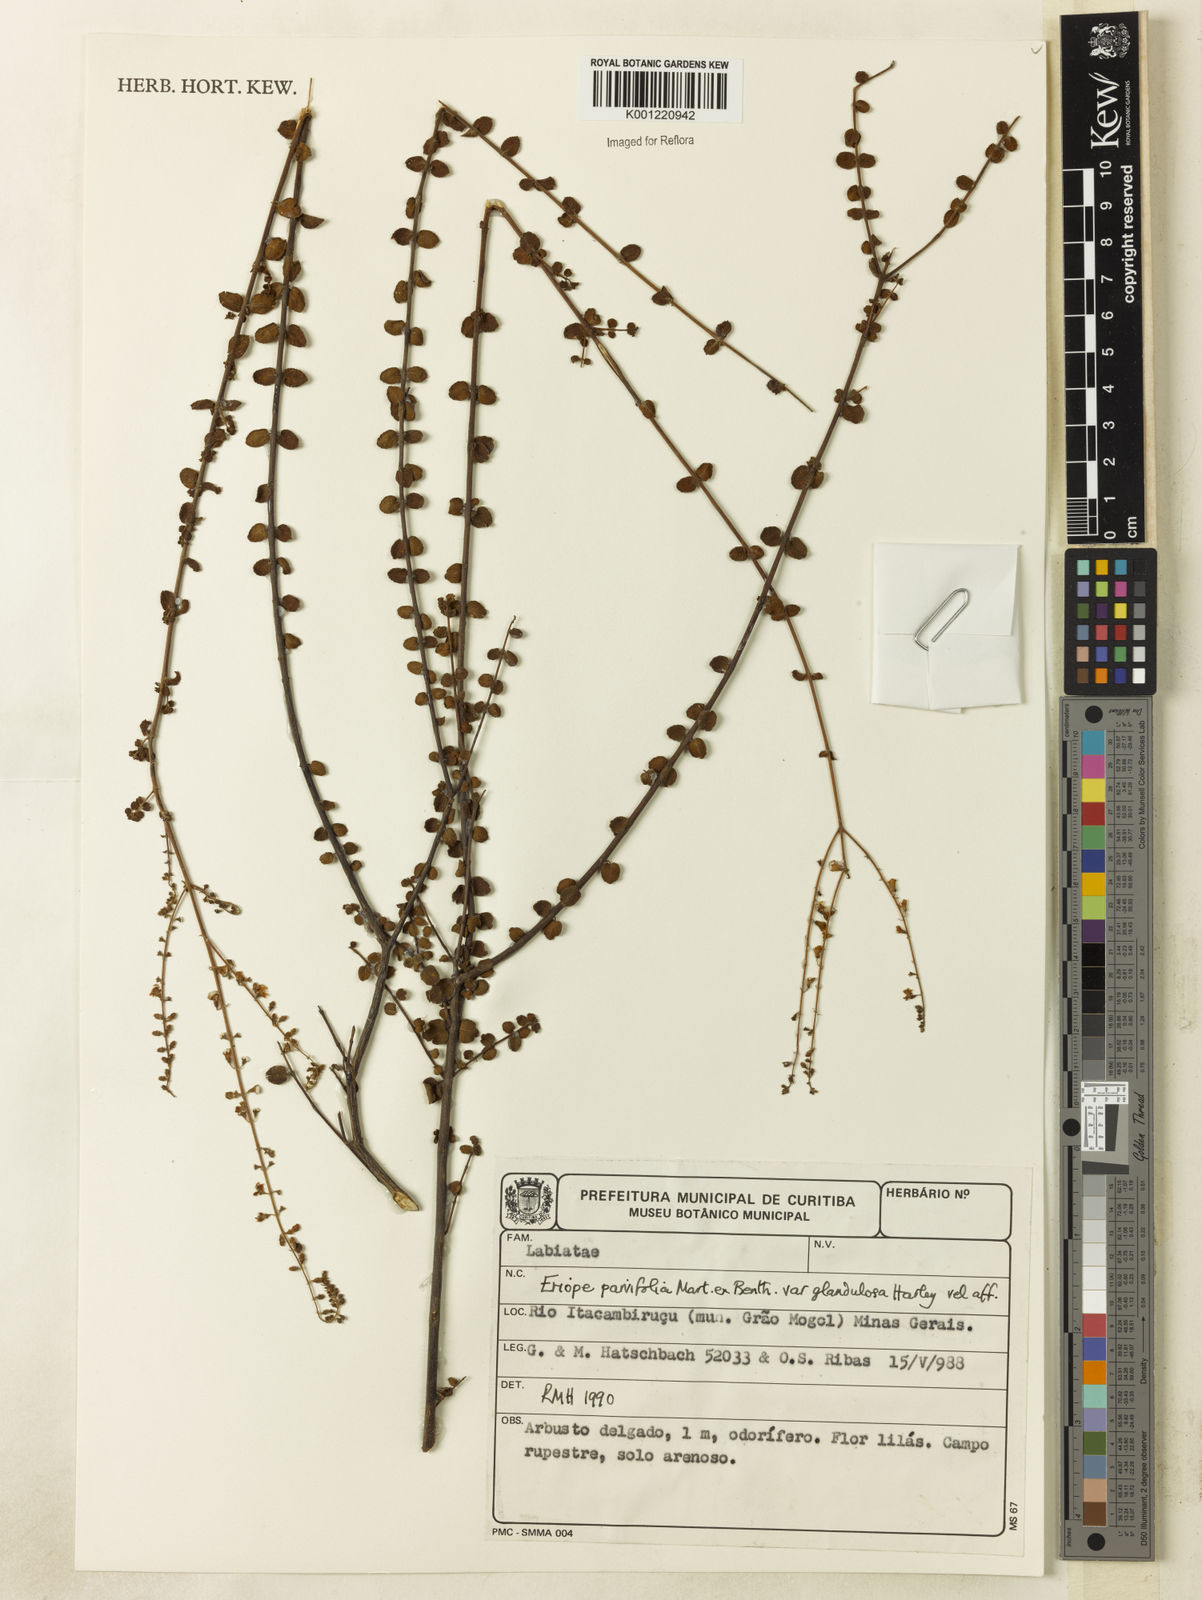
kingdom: Plantae
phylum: Tracheophyta
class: Magnoliopsida
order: Lamiales
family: Lamiaceae
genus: Eriope
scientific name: Eriope glandulosa
